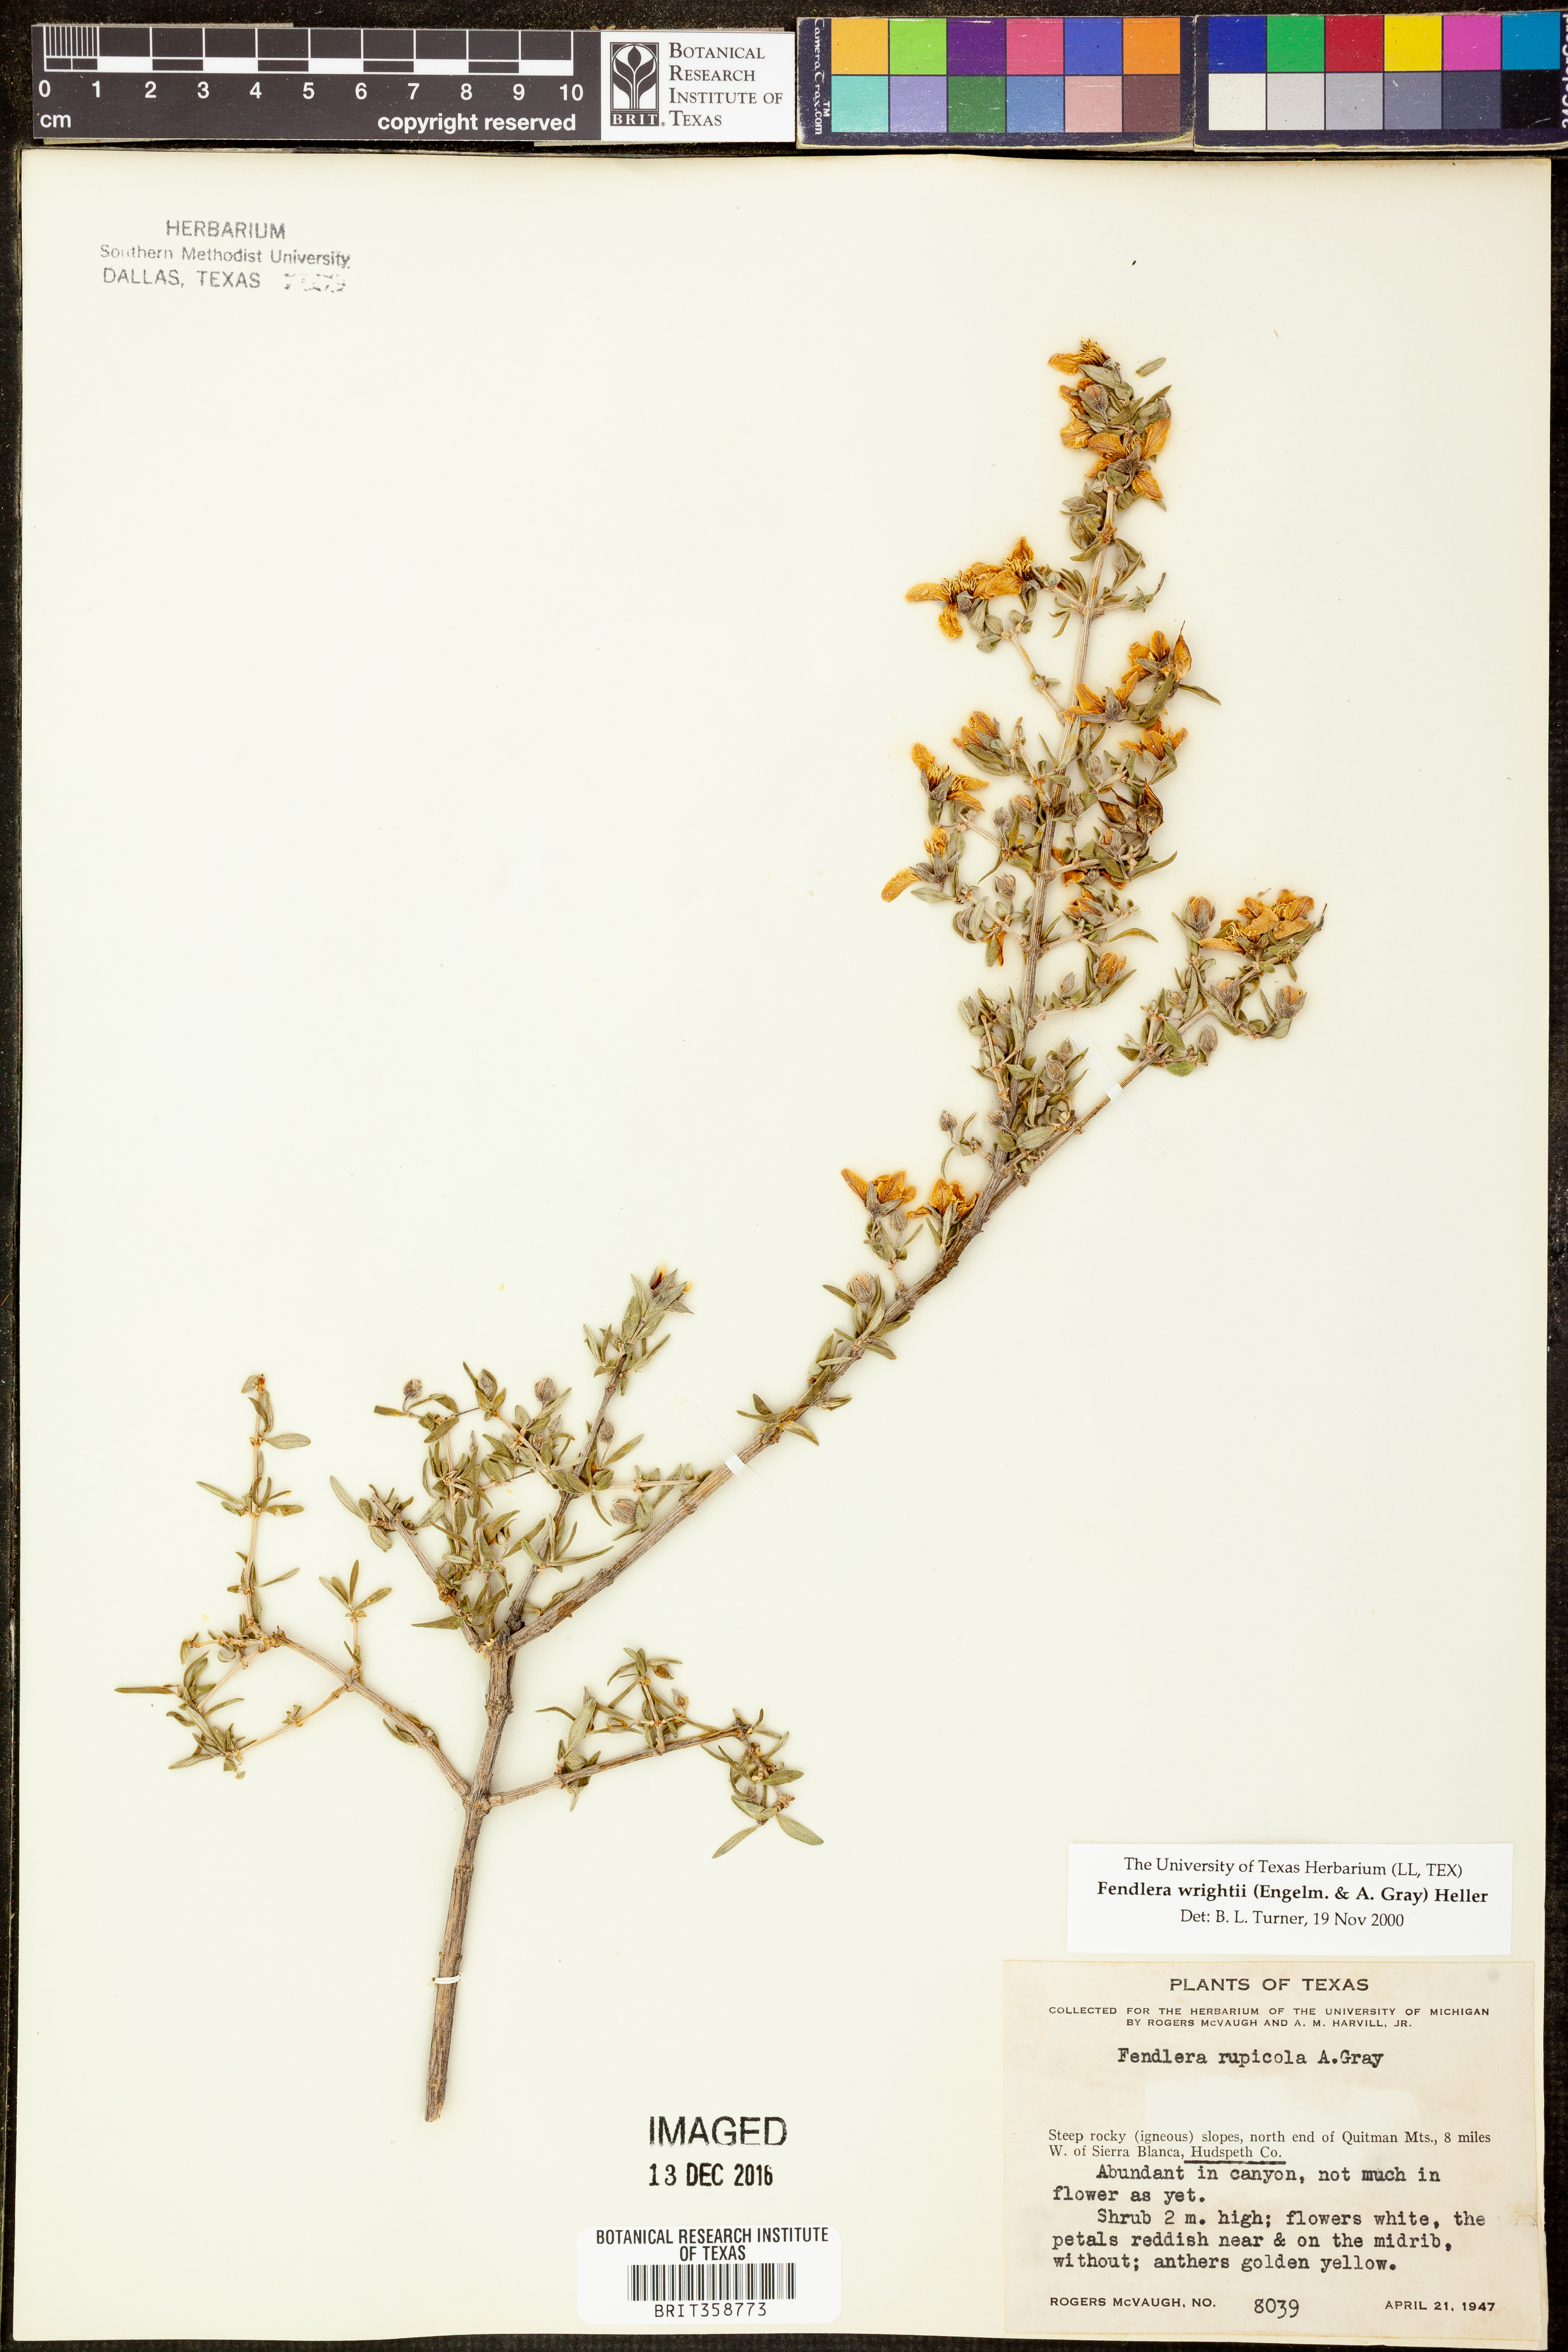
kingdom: Plantae
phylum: Tracheophyta
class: Magnoliopsida
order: Cornales
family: Hydrangeaceae
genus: Fendlera
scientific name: Fendlera wrightii
